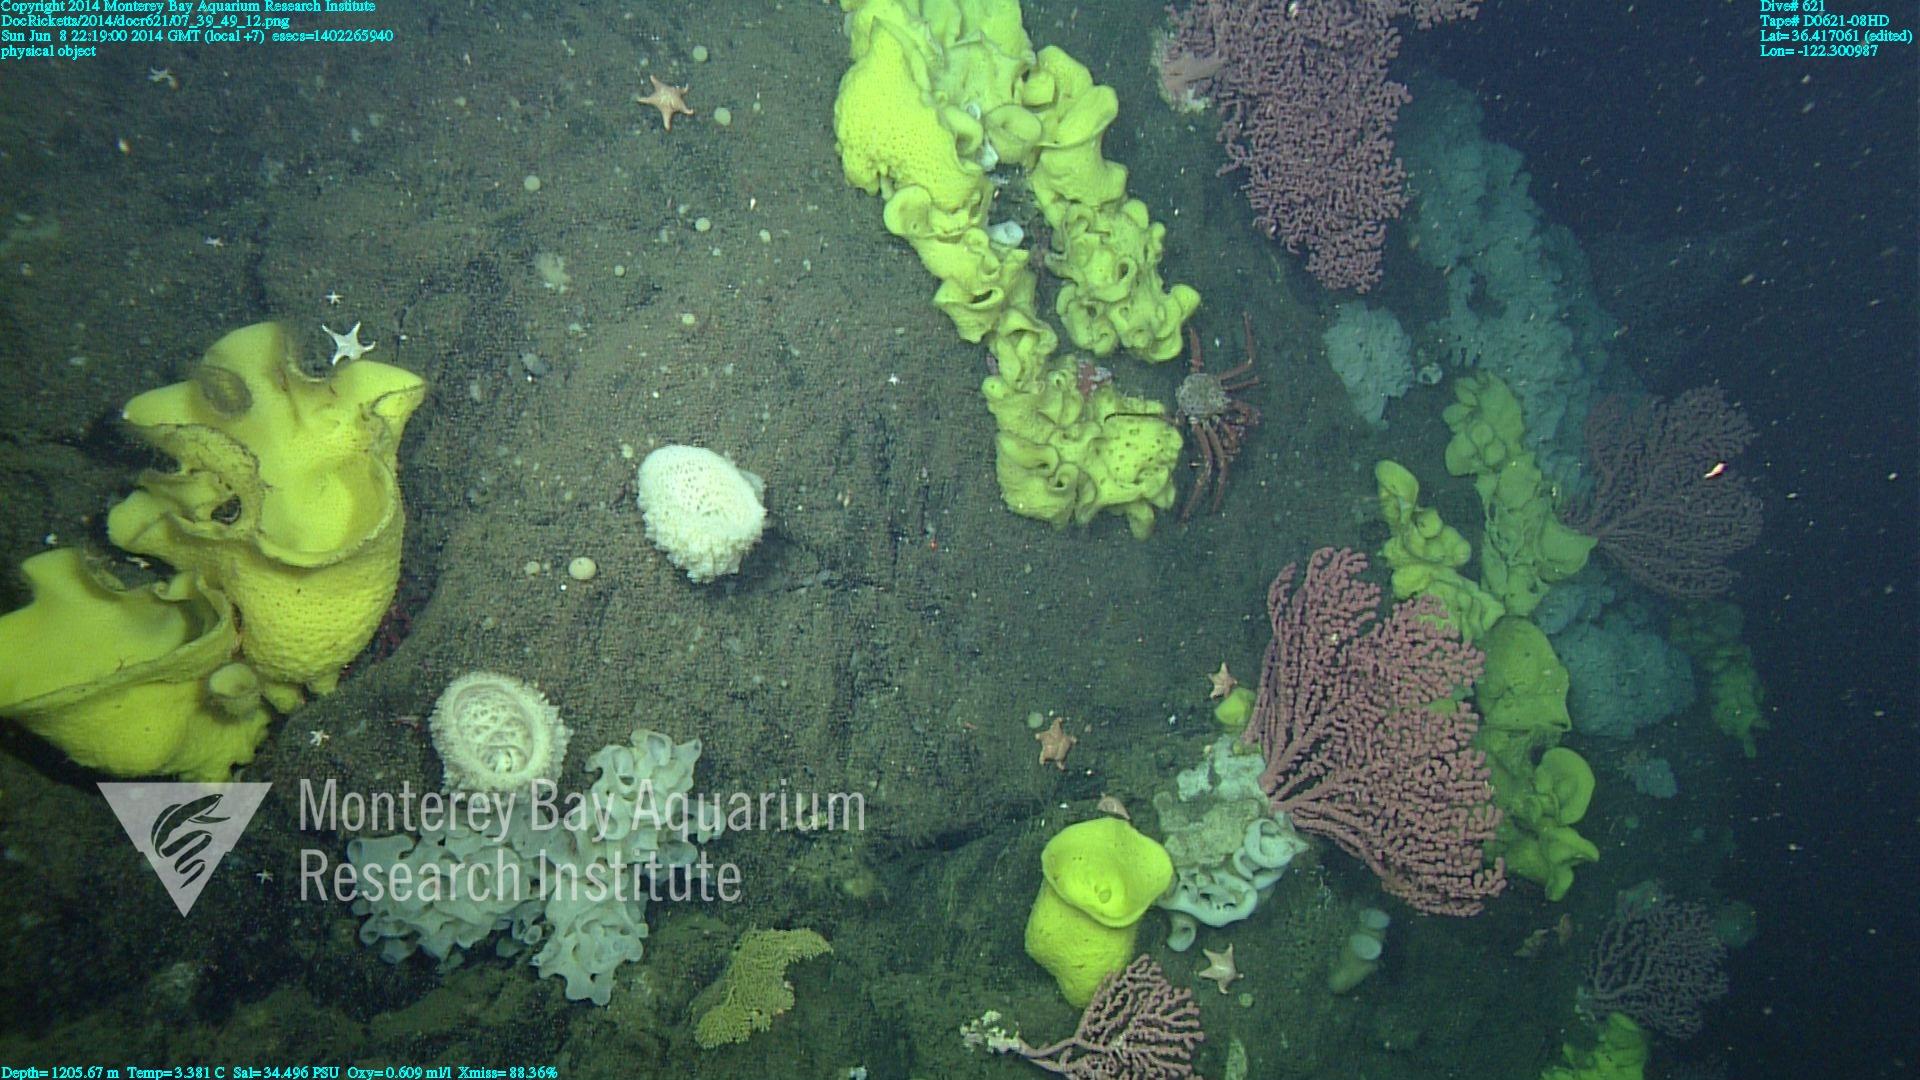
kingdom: Animalia
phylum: Cnidaria
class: Anthozoa
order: Scleralcyonacea
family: Coralliidae
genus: Paragorgia
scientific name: Paragorgia arborea
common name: Bubble gum coral
